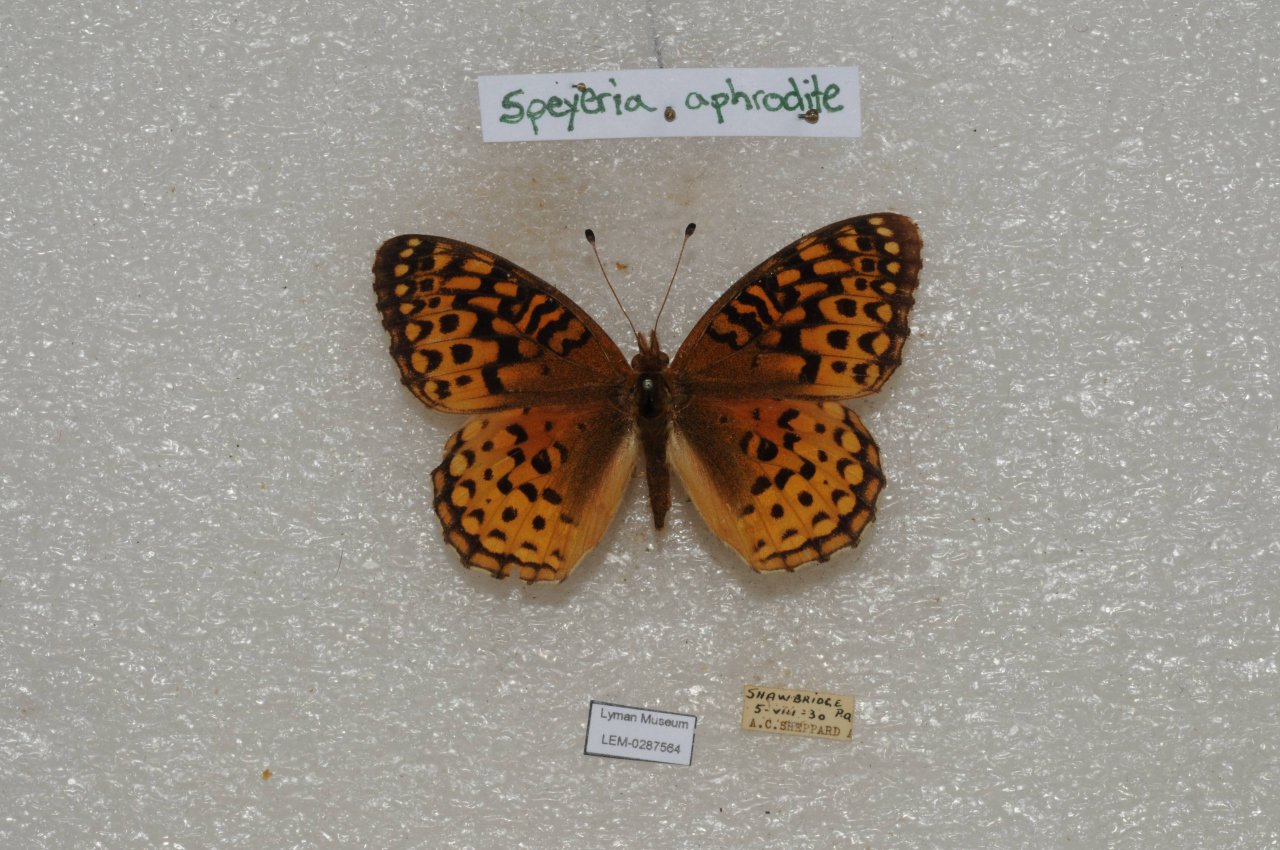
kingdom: Animalia
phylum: Arthropoda
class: Insecta
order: Lepidoptera
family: Nymphalidae
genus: Speyeria
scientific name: Speyeria aphrodite
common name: Aphrodite Fritillary
